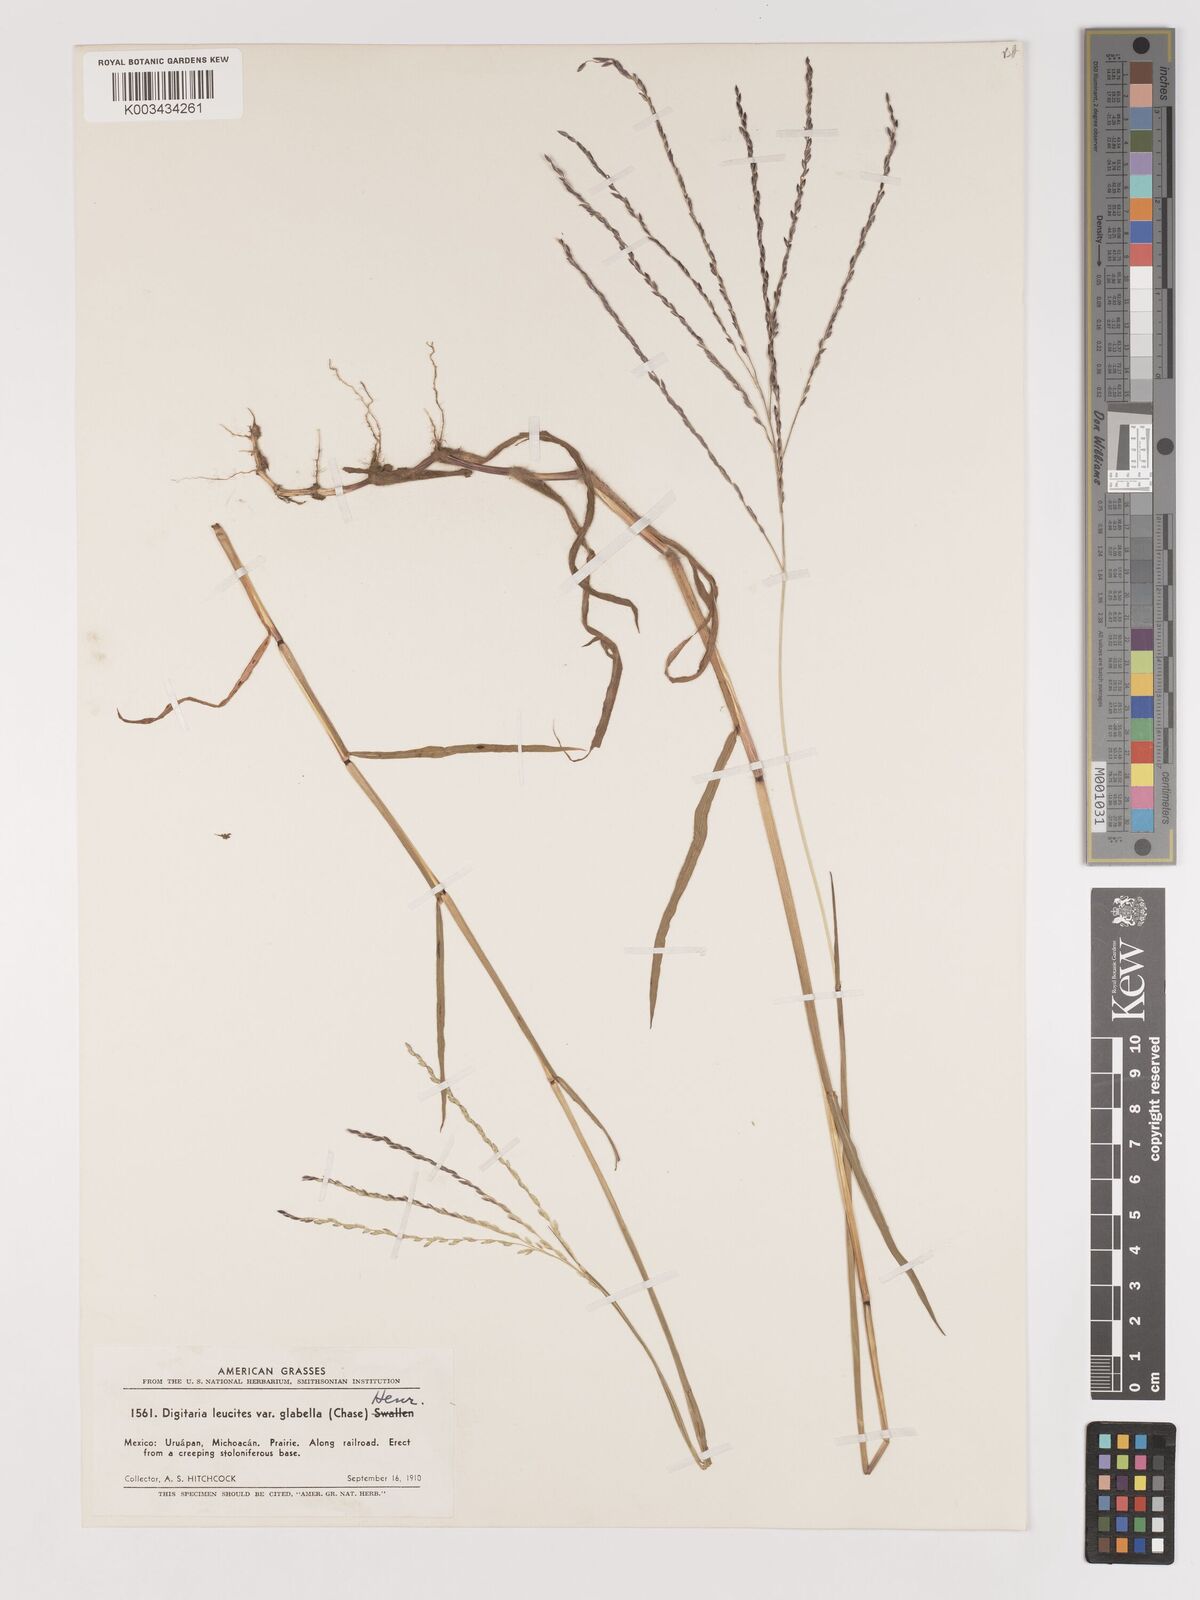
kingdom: Plantae
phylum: Tracheophyta
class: Liliopsida
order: Poales
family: Poaceae
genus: Digitaria
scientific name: Digitaria leucites
